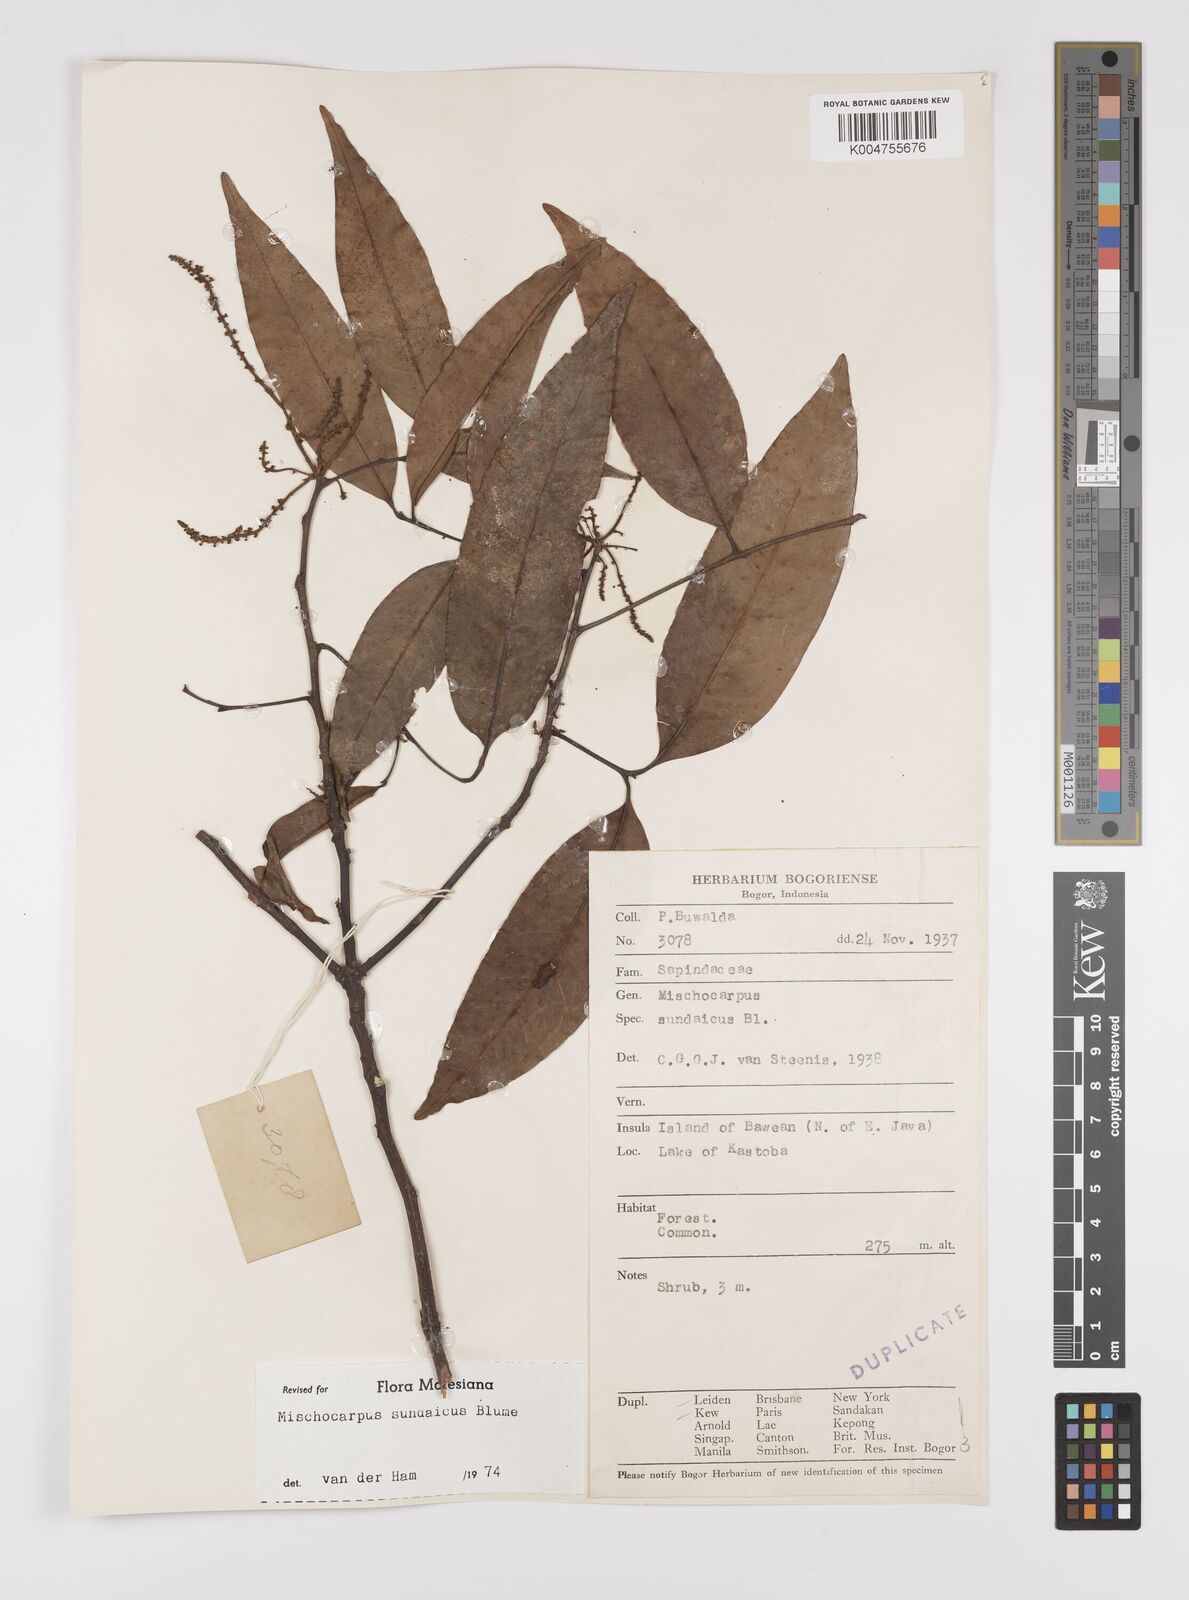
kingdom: Plantae
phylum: Tracheophyta
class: Magnoliopsida
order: Sapindales
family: Sapindaceae
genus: Mischocarpus
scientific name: Mischocarpus sundaicus
